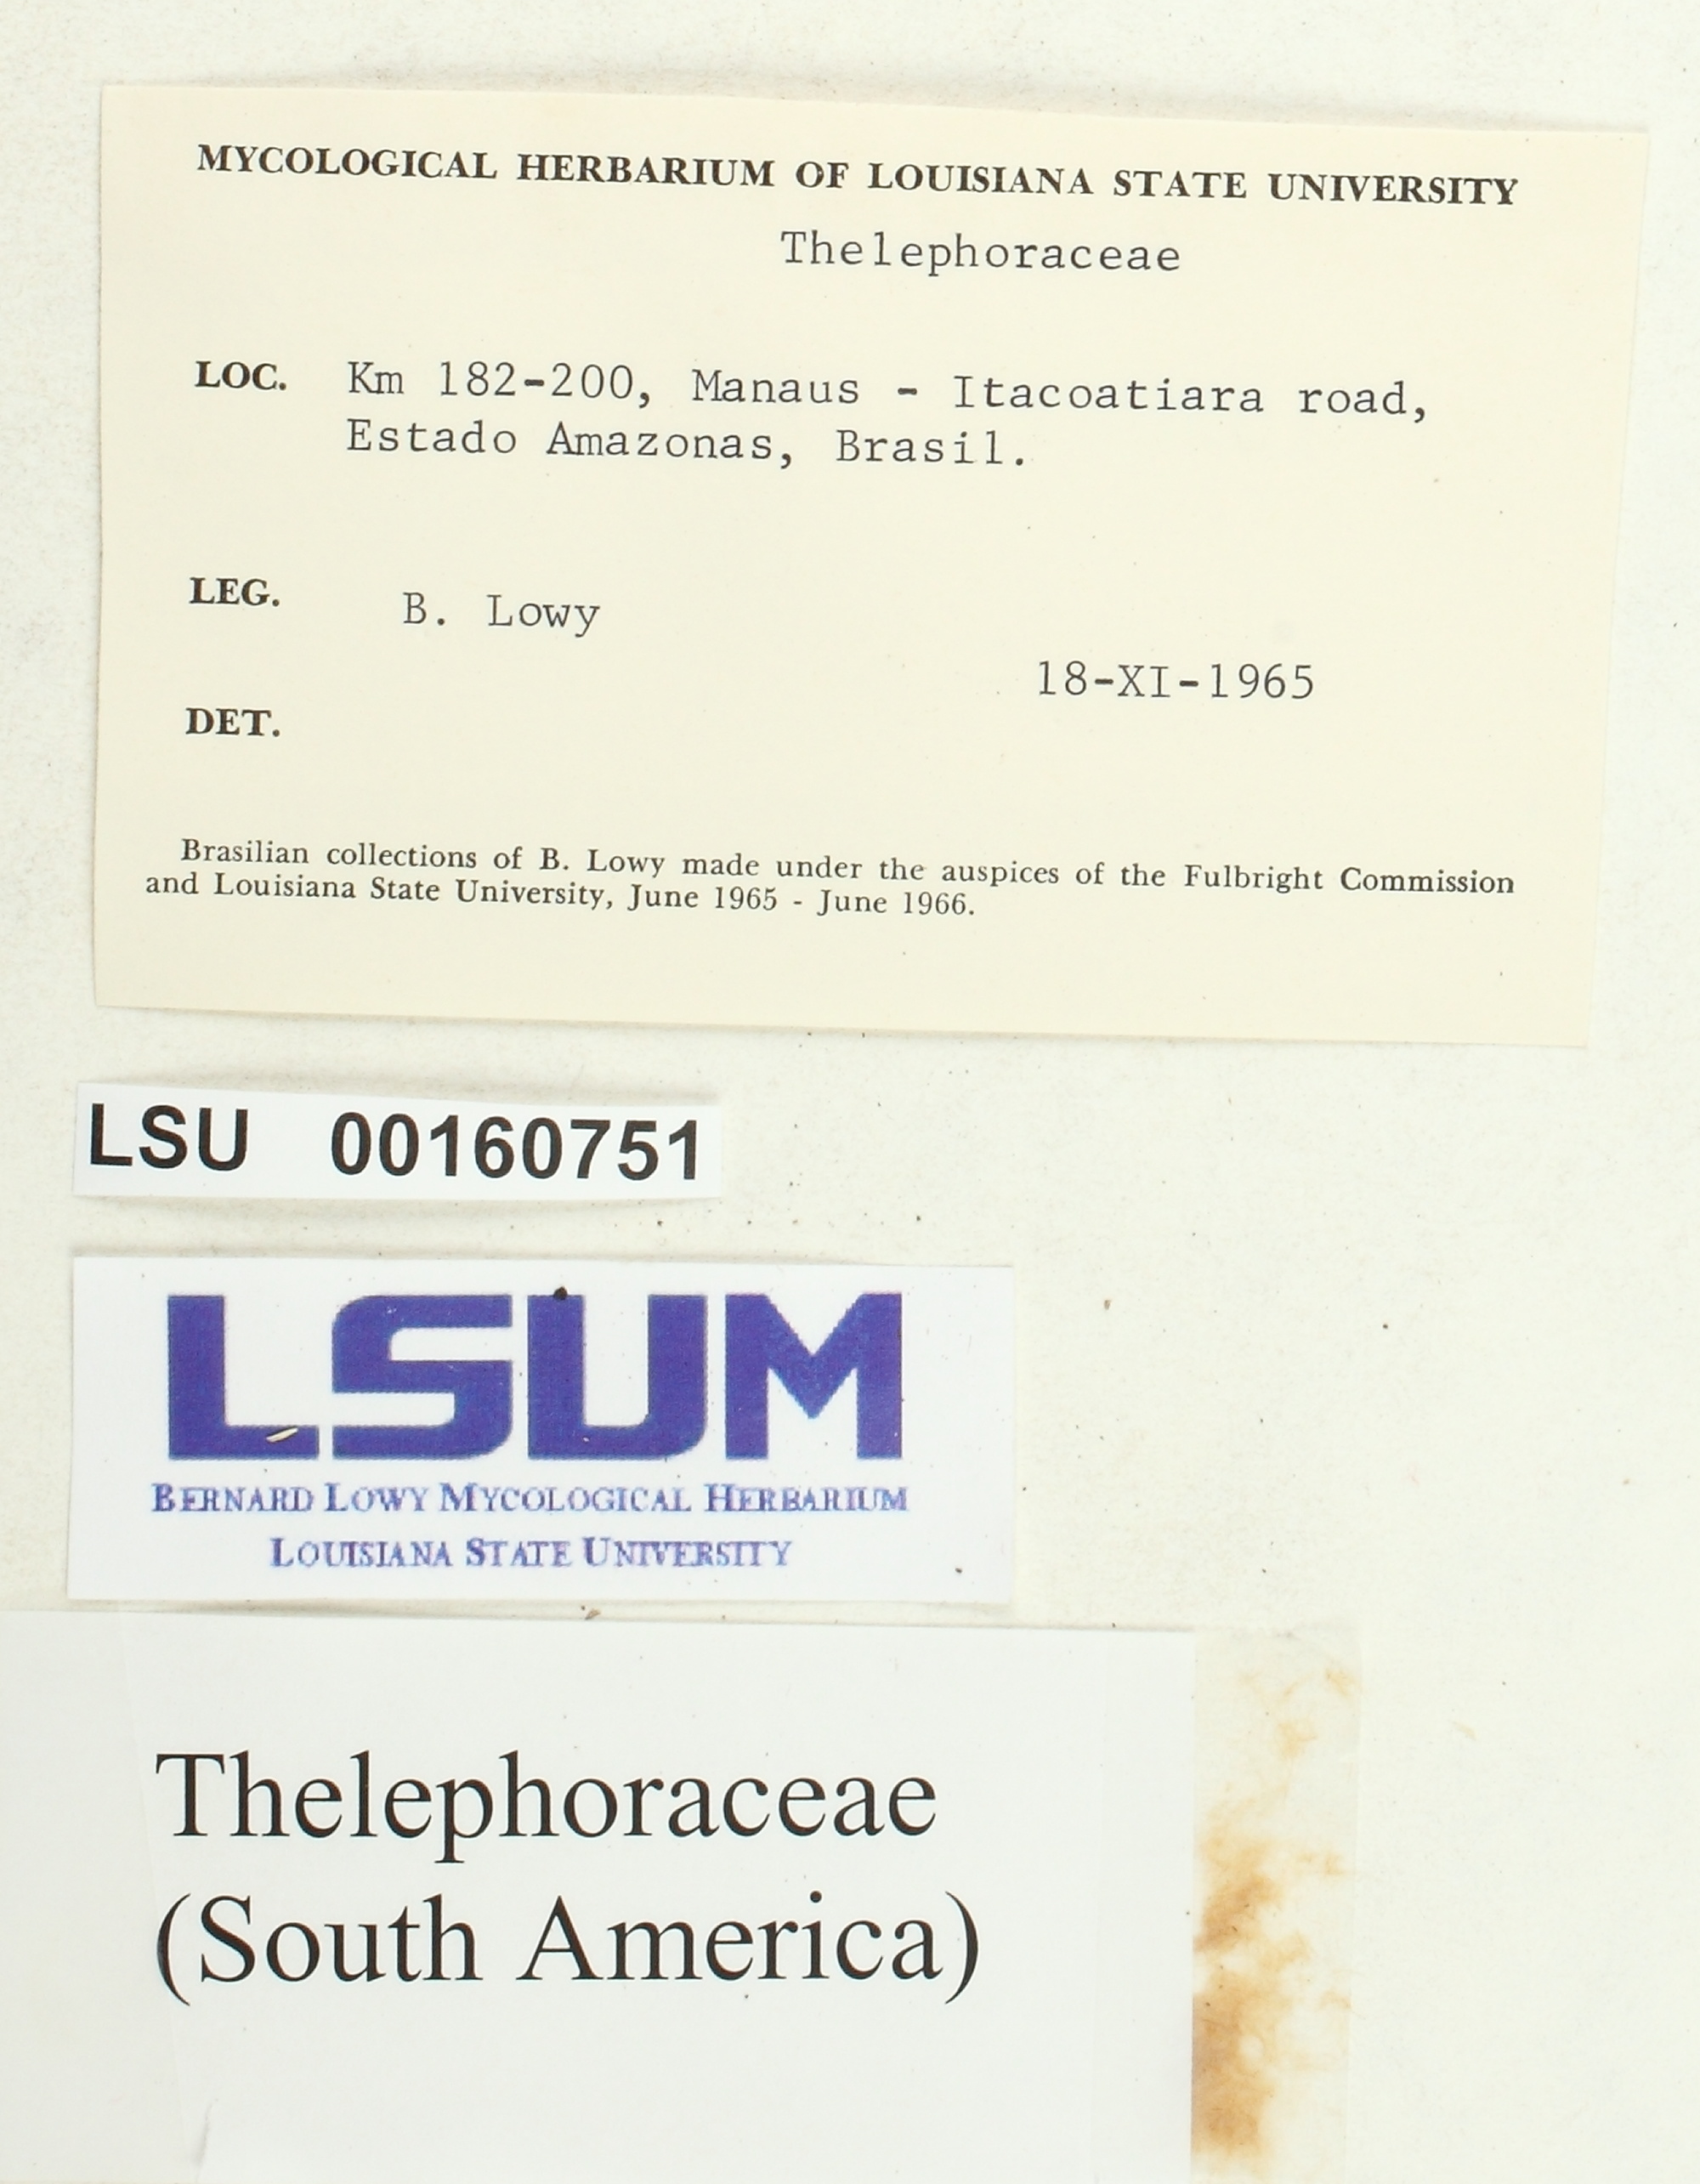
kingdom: Fungi
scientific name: Fungi
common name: Fungi
